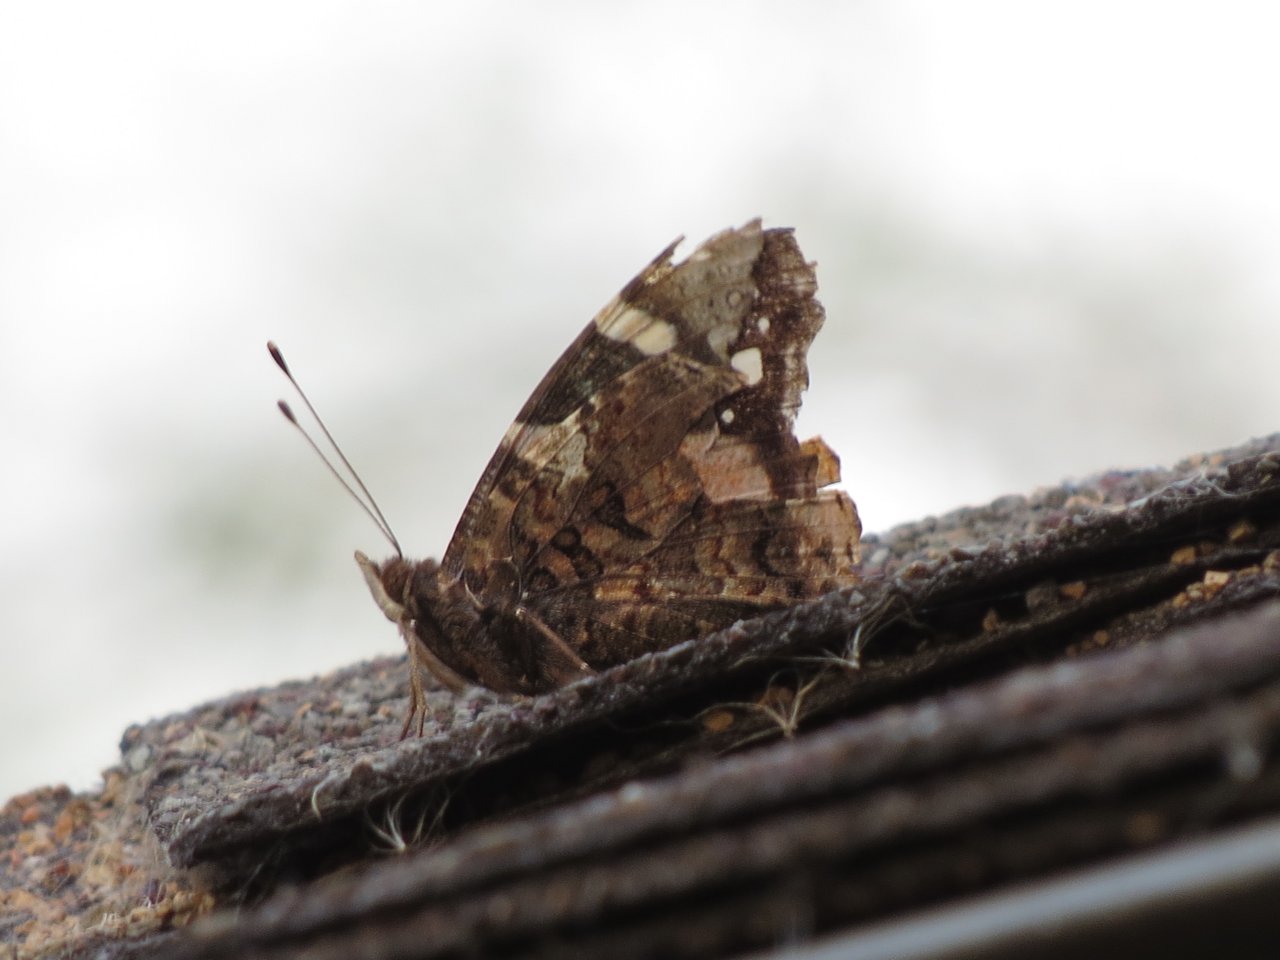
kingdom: Animalia
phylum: Arthropoda
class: Insecta
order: Lepidoptera
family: Nymphalidae
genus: Vanessa
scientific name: Vanessa atalanta
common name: Red Admiral
